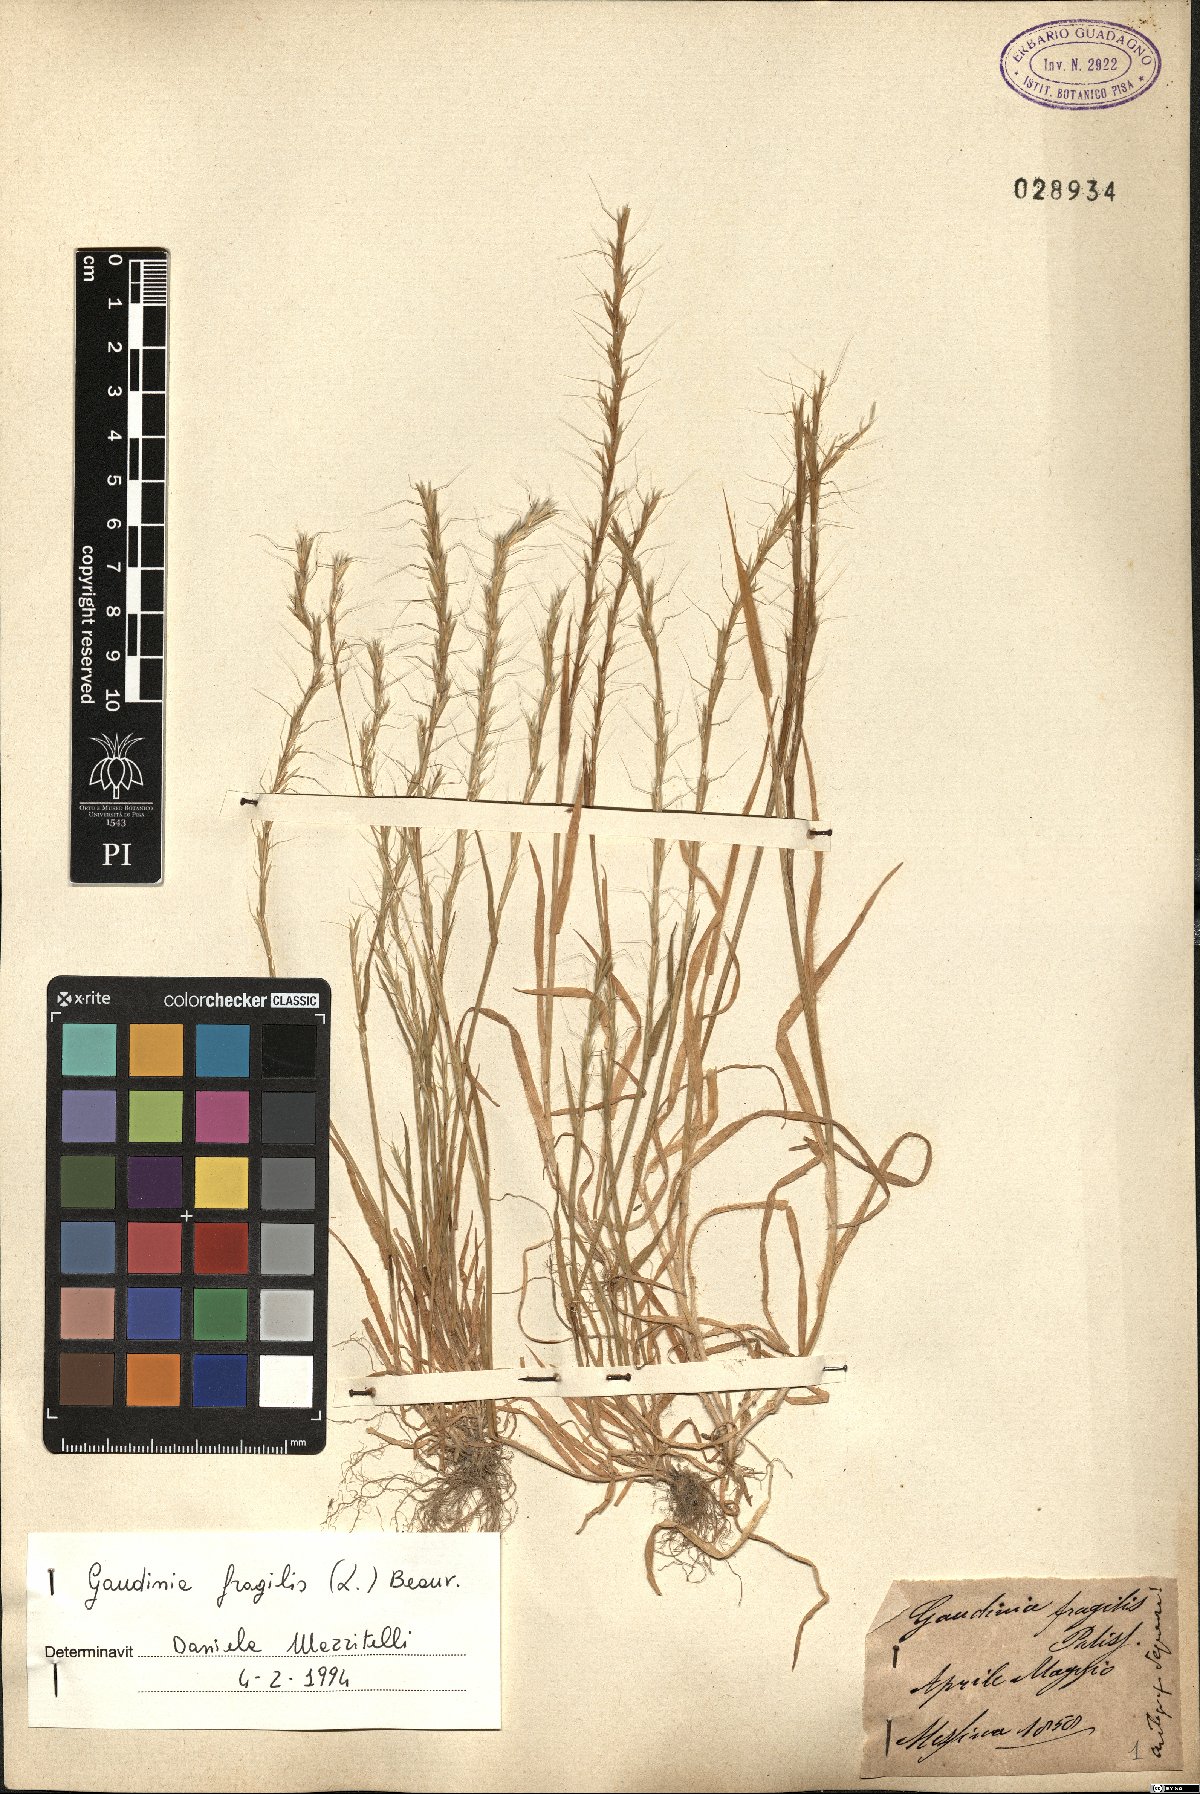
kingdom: Plantae
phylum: Tracheophyta
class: Liliopsida
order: Poales
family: Poaceae
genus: Gaudinia
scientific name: Gaudinia fragilis
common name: French oat-grass
